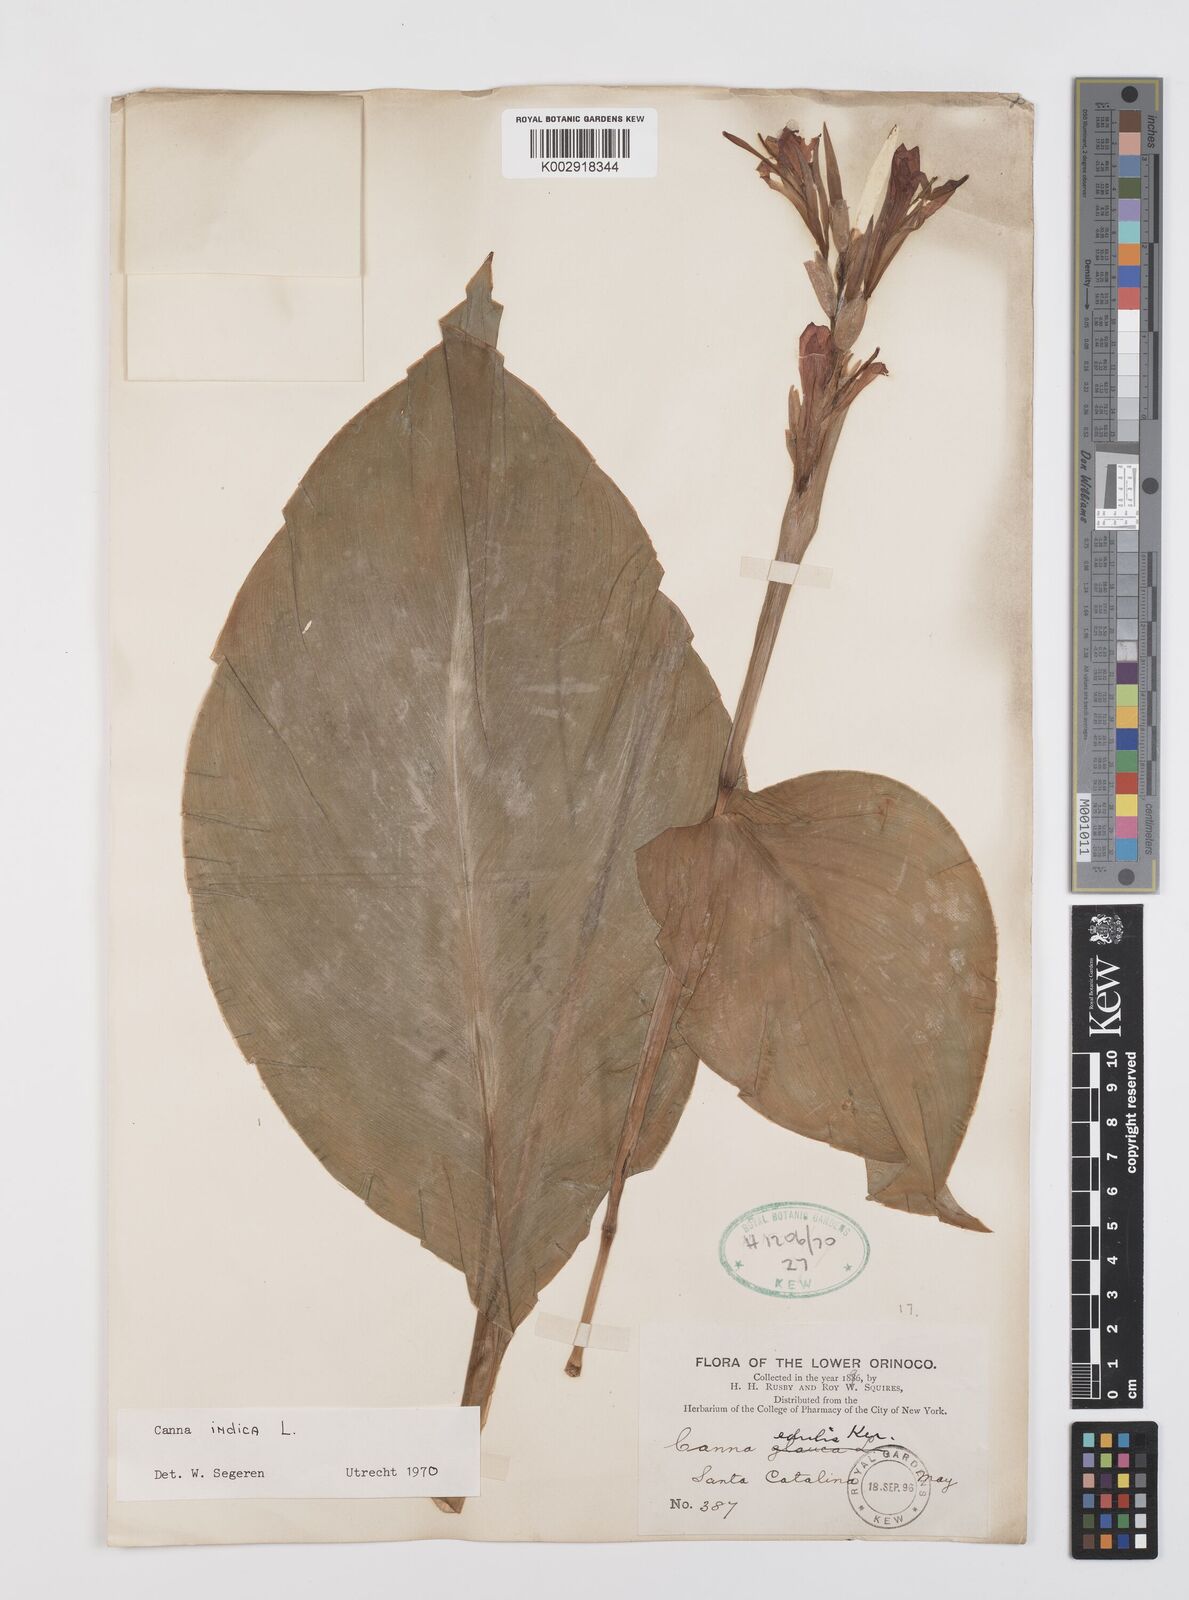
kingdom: Plantae
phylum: Tracheophyta
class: Liliopsida
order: Zingiberales
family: Cannaceae
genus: Canna
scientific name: Canna indica
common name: Indian shot
